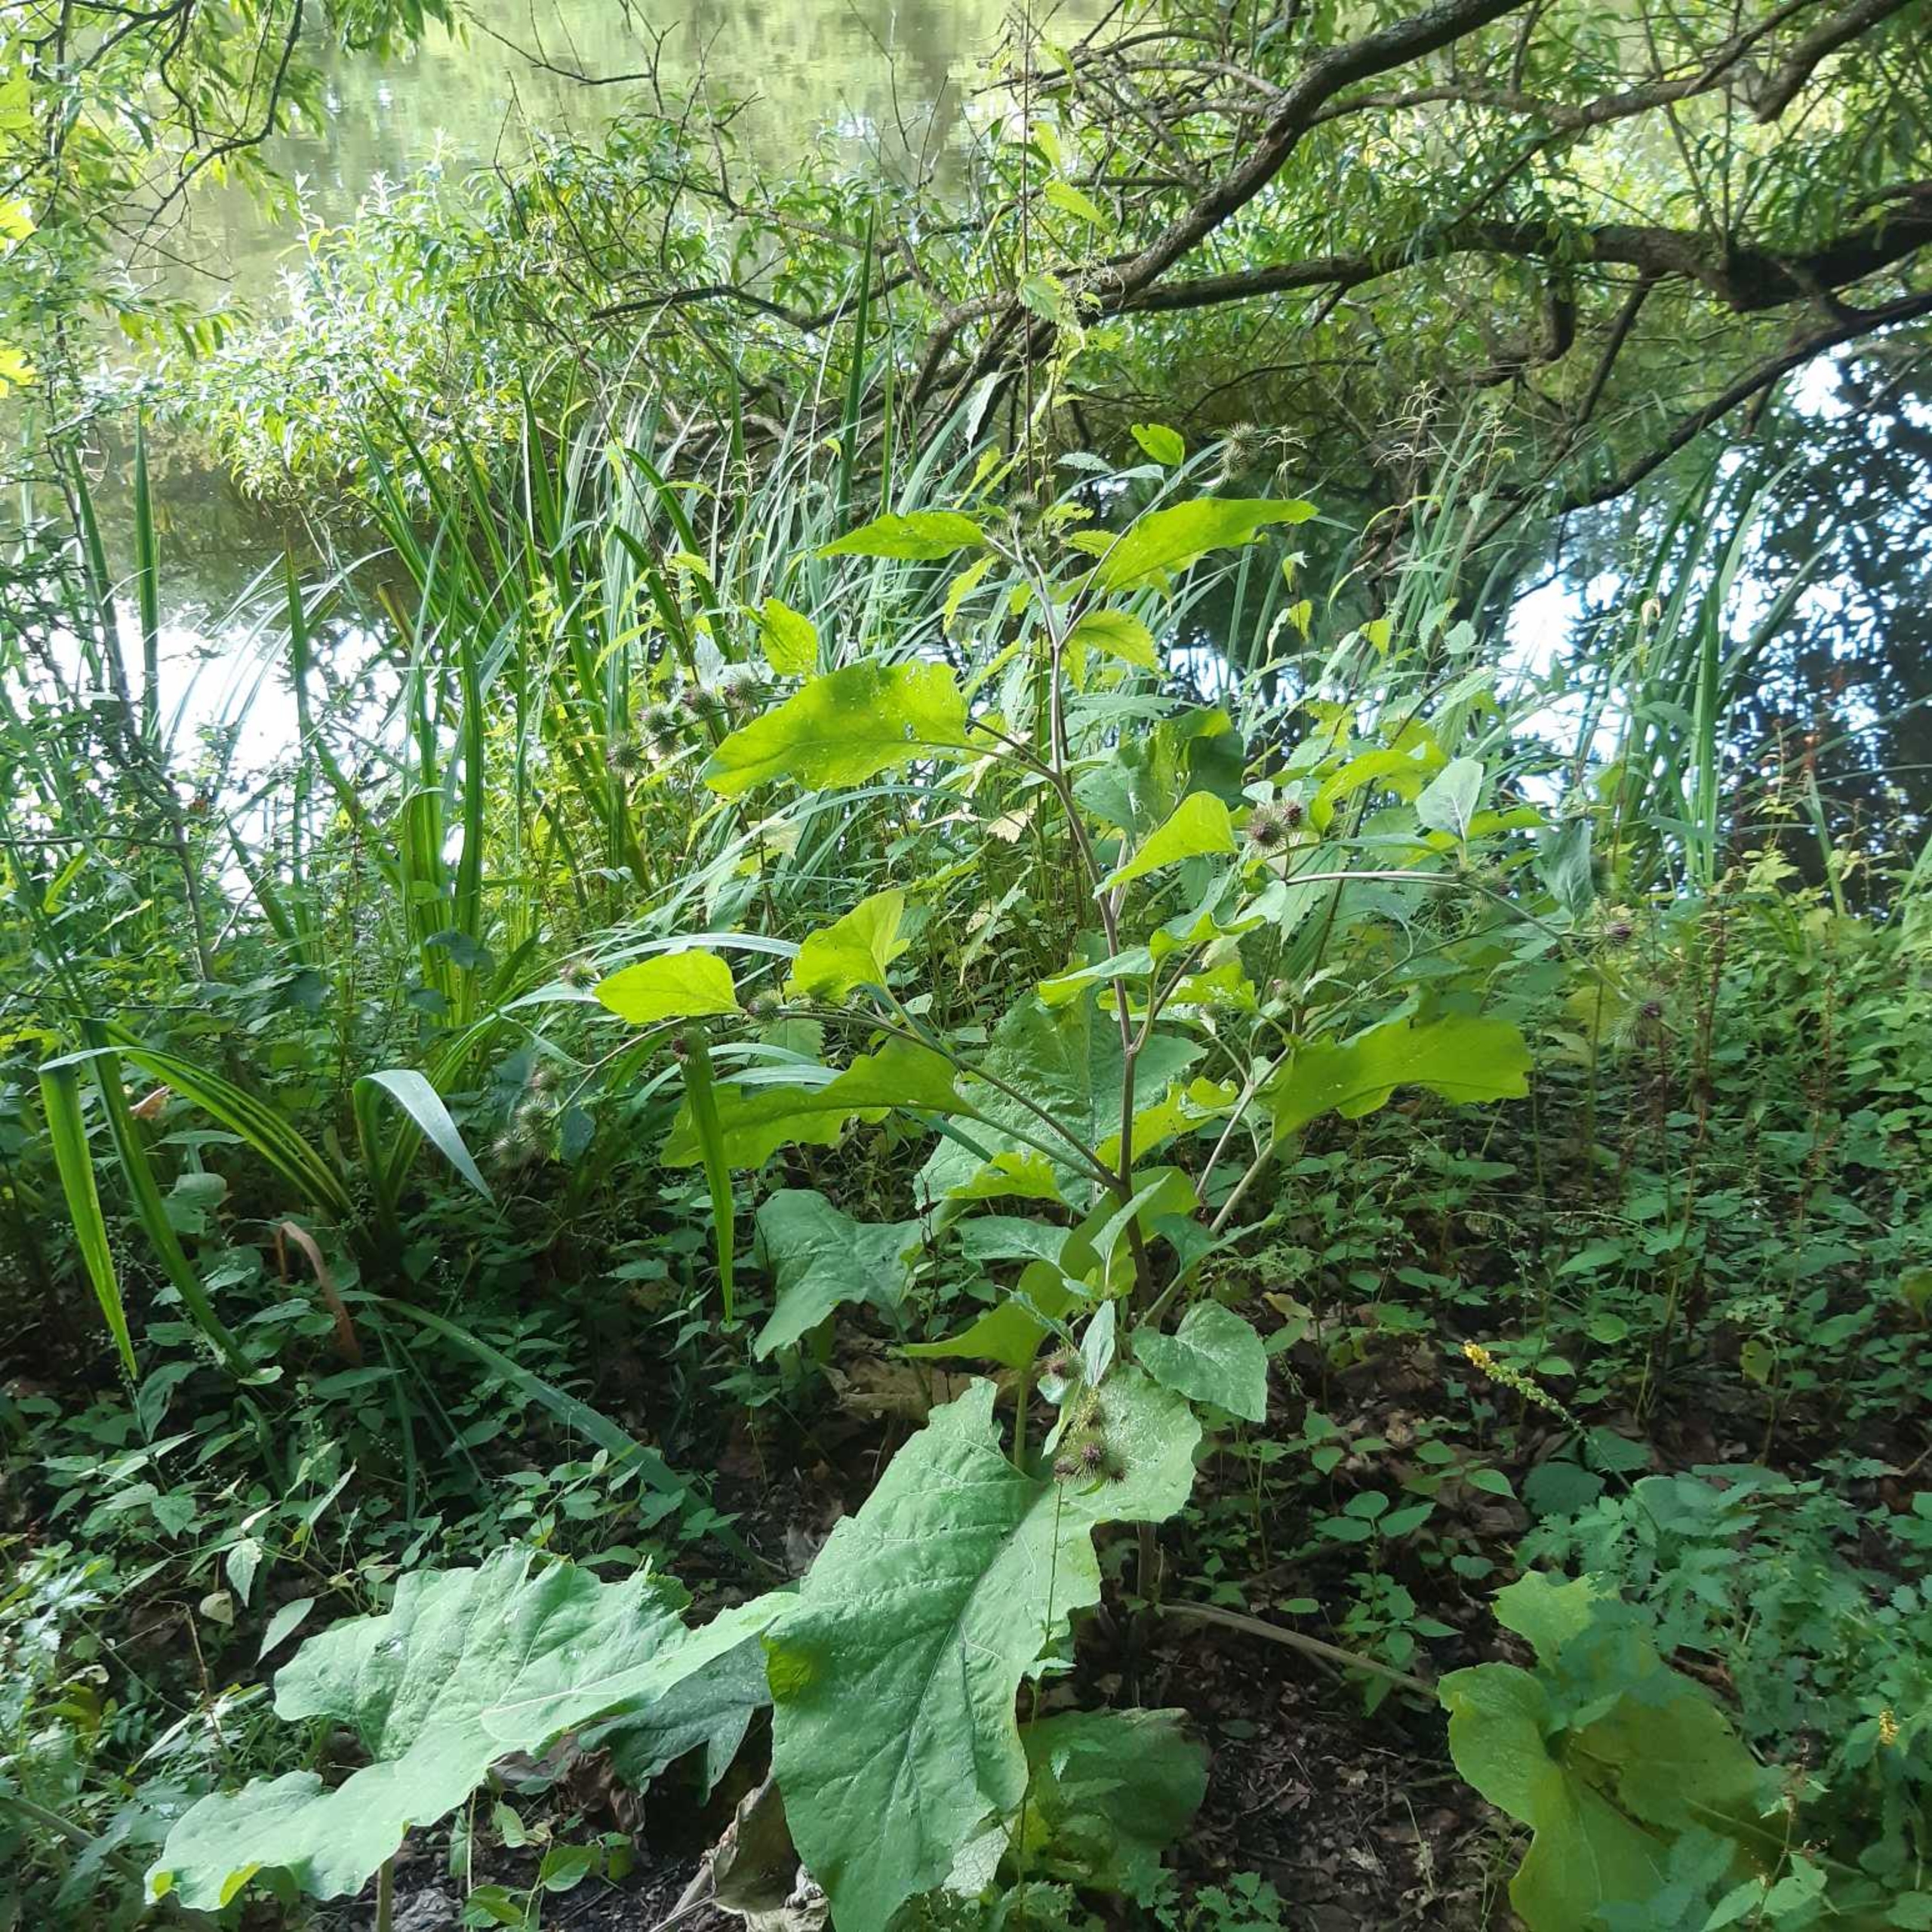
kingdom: Plantae
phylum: Tracheophyta
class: Magnoliopsida
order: Asterales
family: Asteraceae
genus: Arctium
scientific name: Arctium nemorosum
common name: Skov-burre
